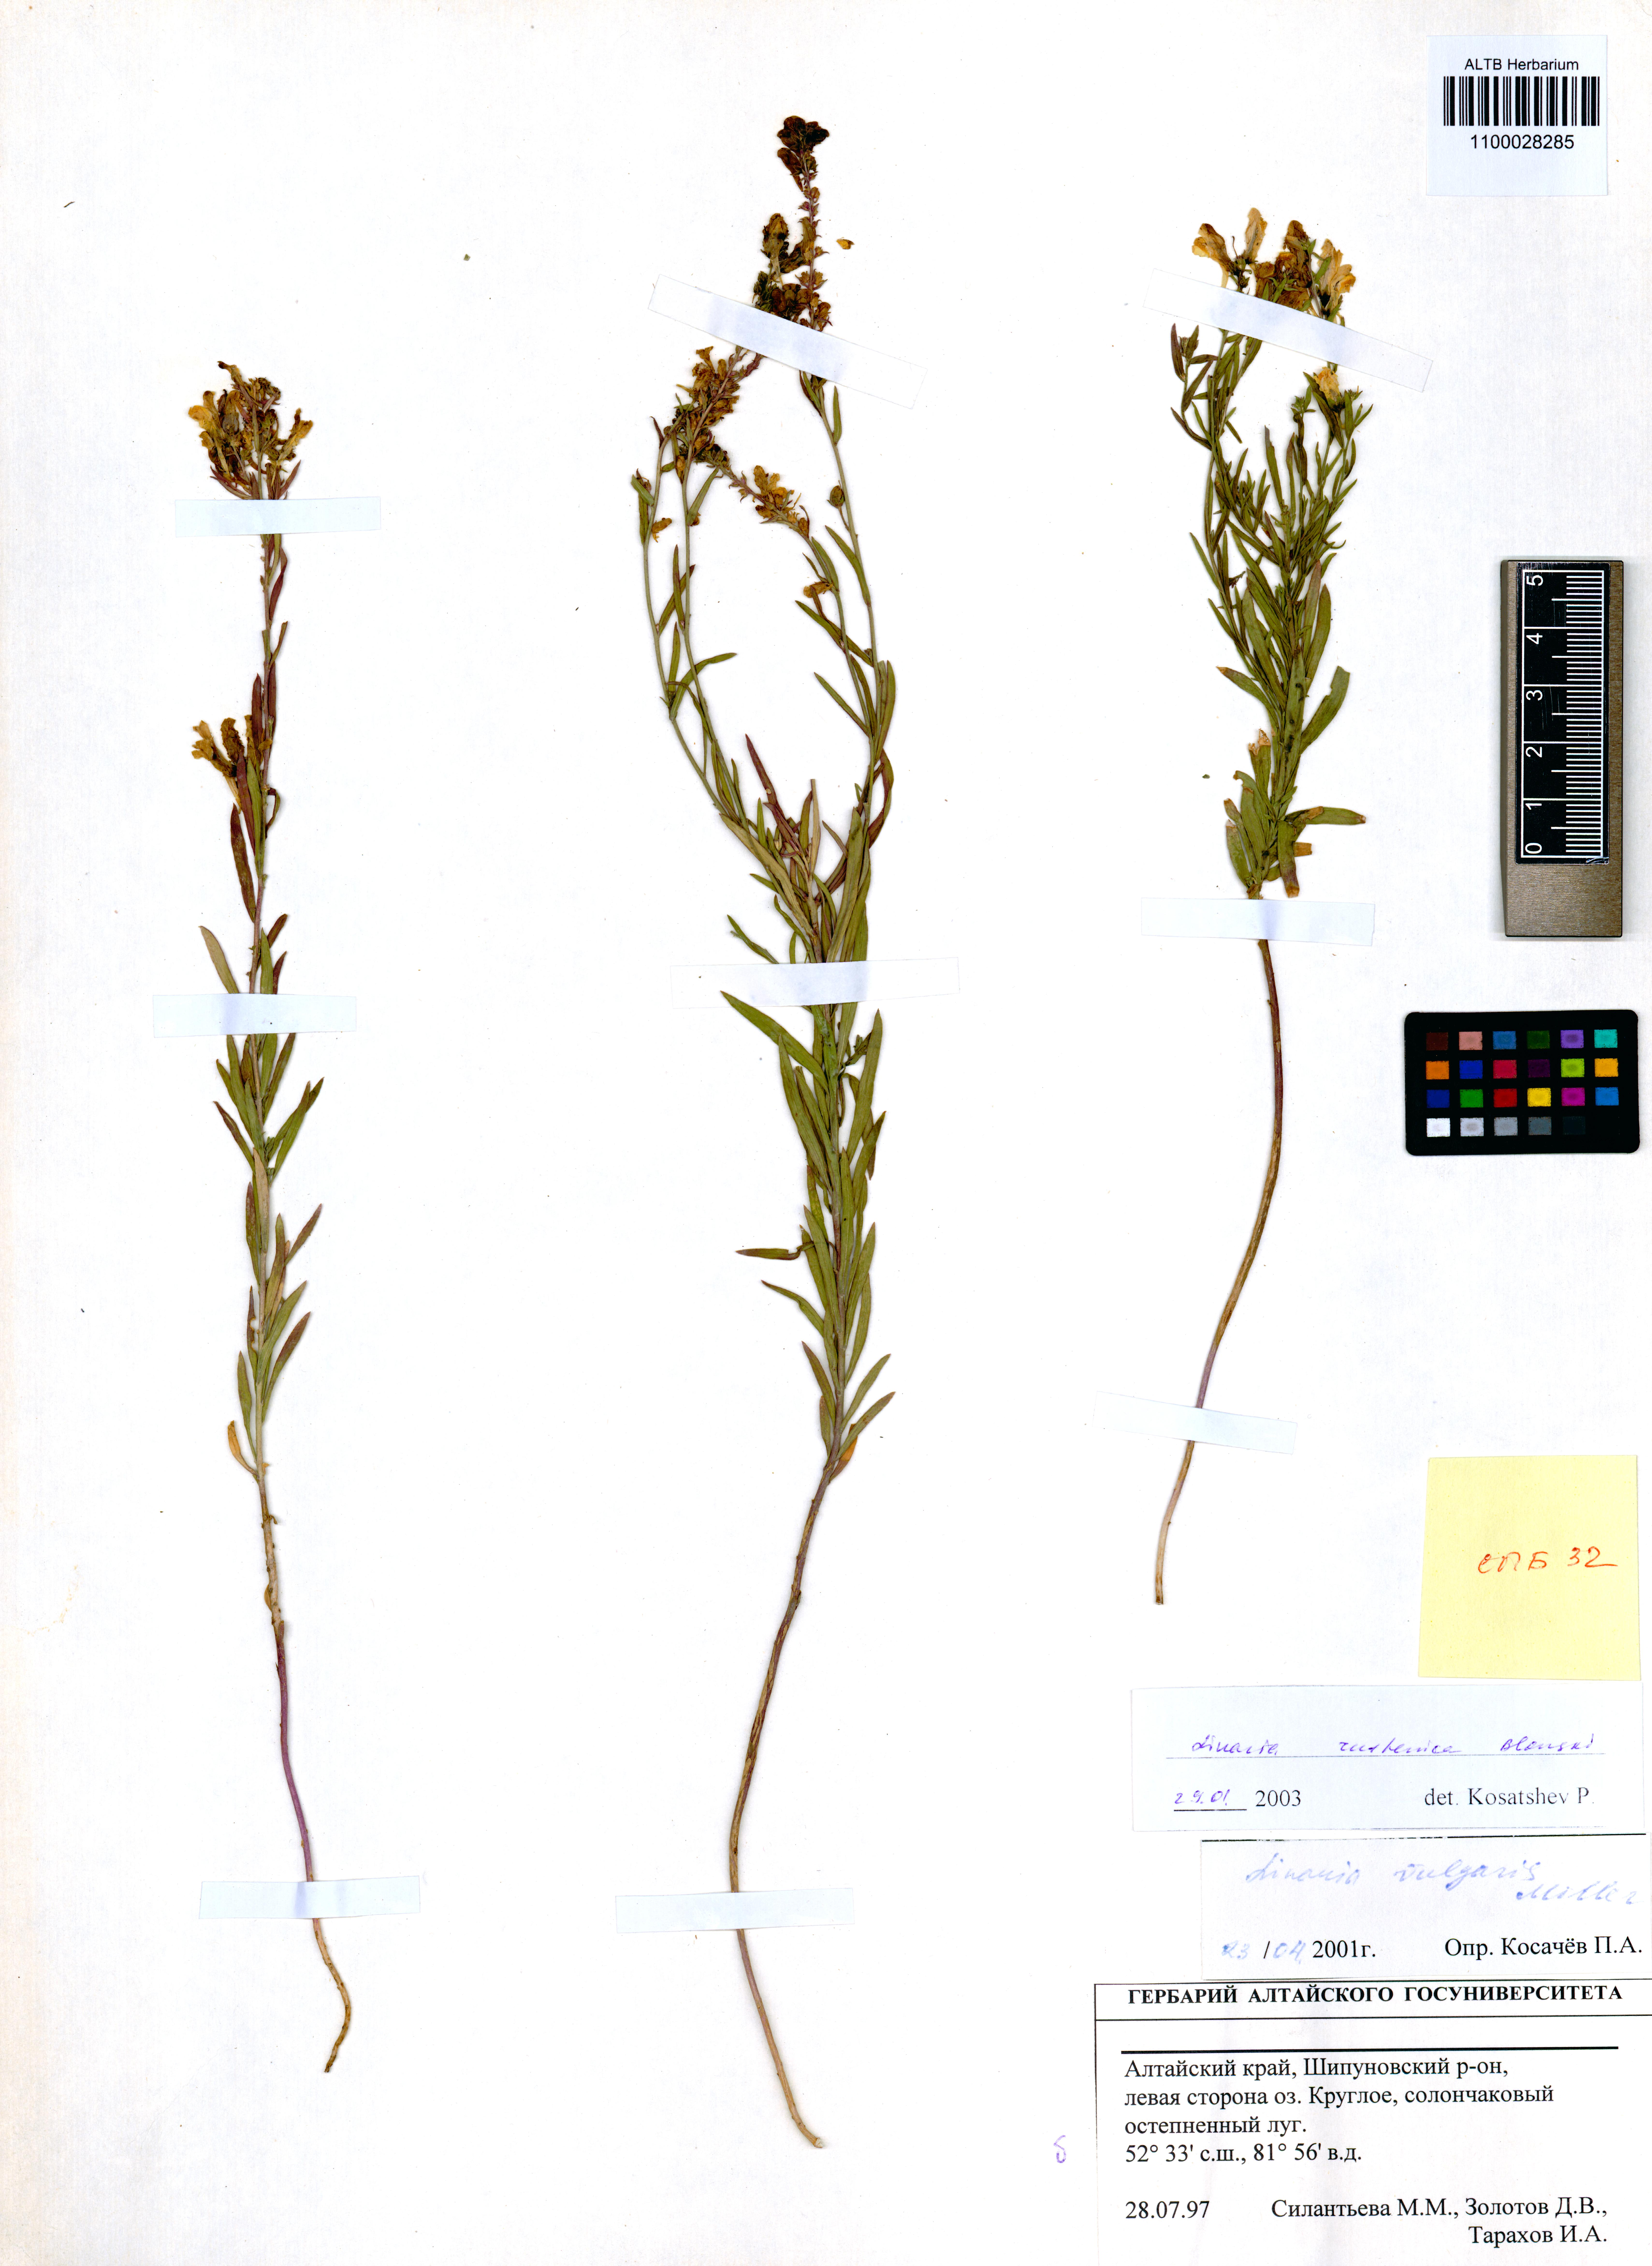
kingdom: Plantae
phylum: Tracheophyta
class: Magnoliopsida
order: Lamiales
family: Plantaginaceae
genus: Linaria
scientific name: Linaria biebersteinii
